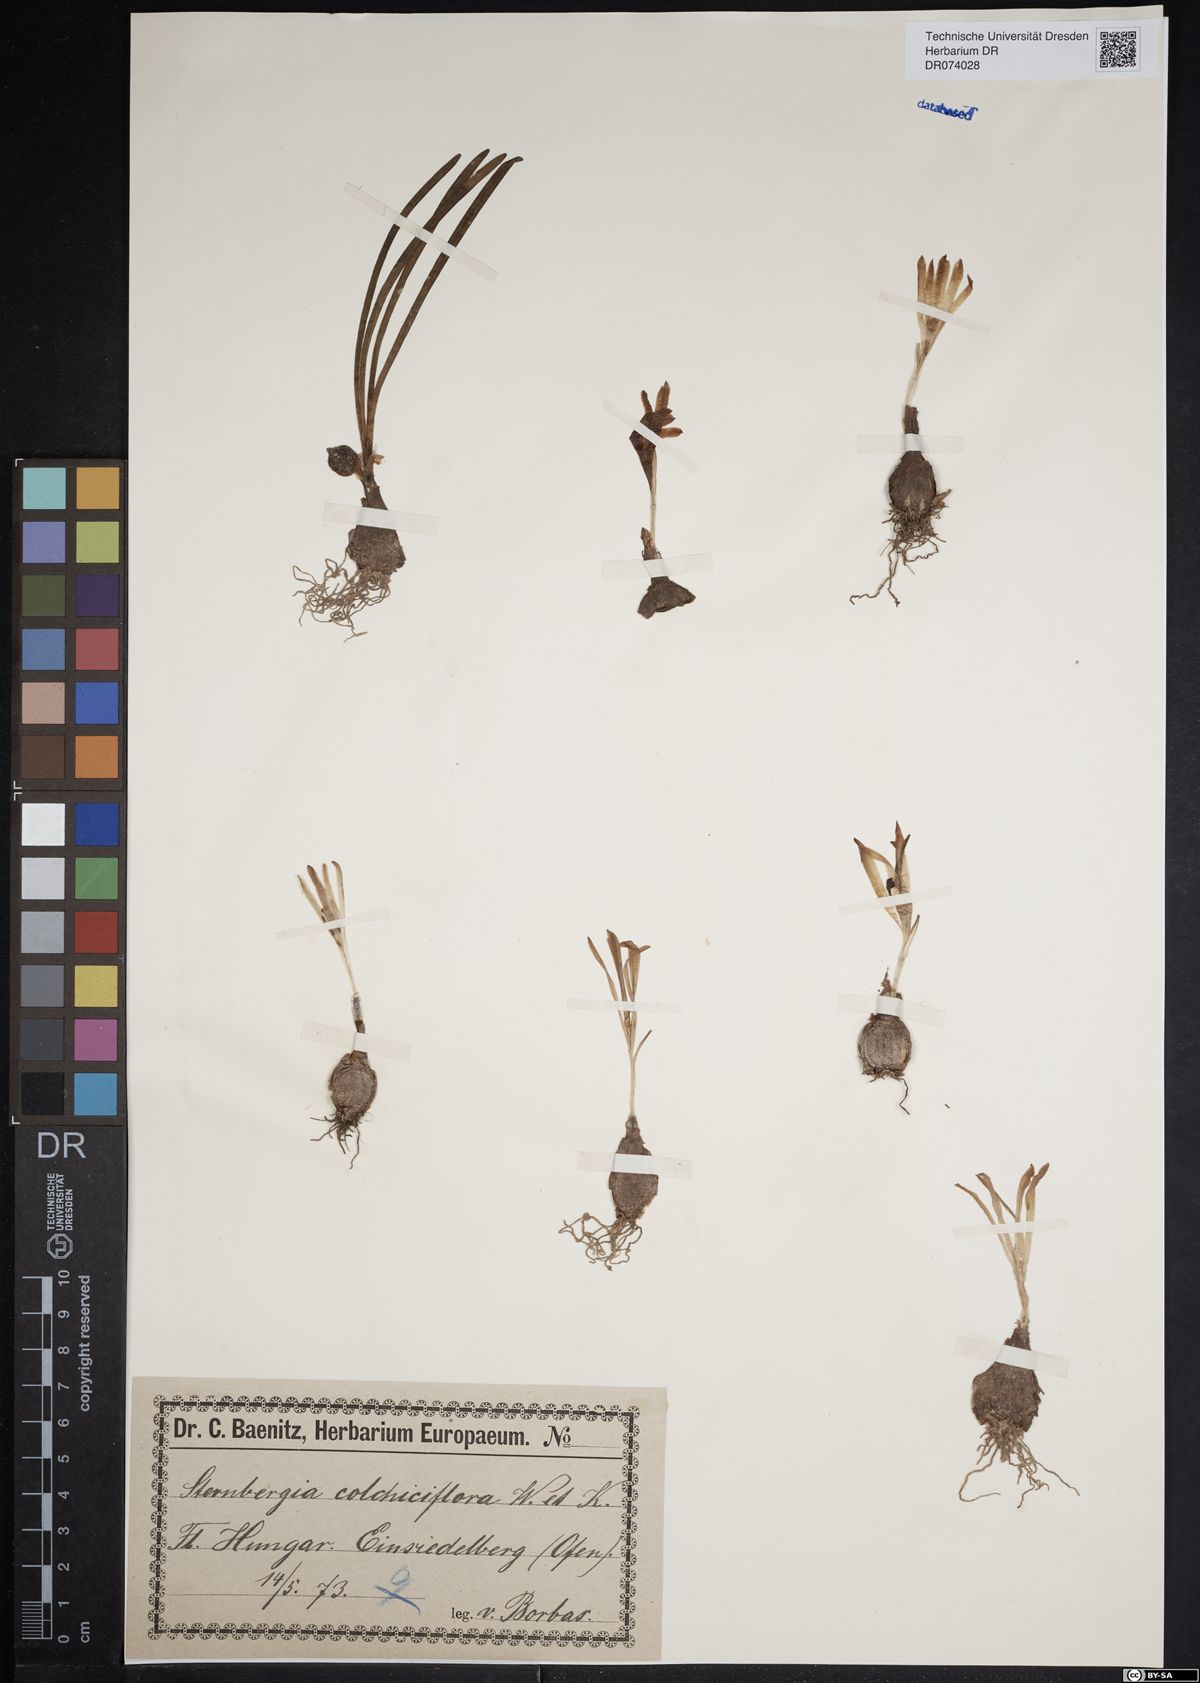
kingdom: Plantae
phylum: Tracheophyta
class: Liliopsida
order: Asparagales
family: Amaryllidaceae
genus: Sternbergia
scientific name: Sternbergia colchiciflora
